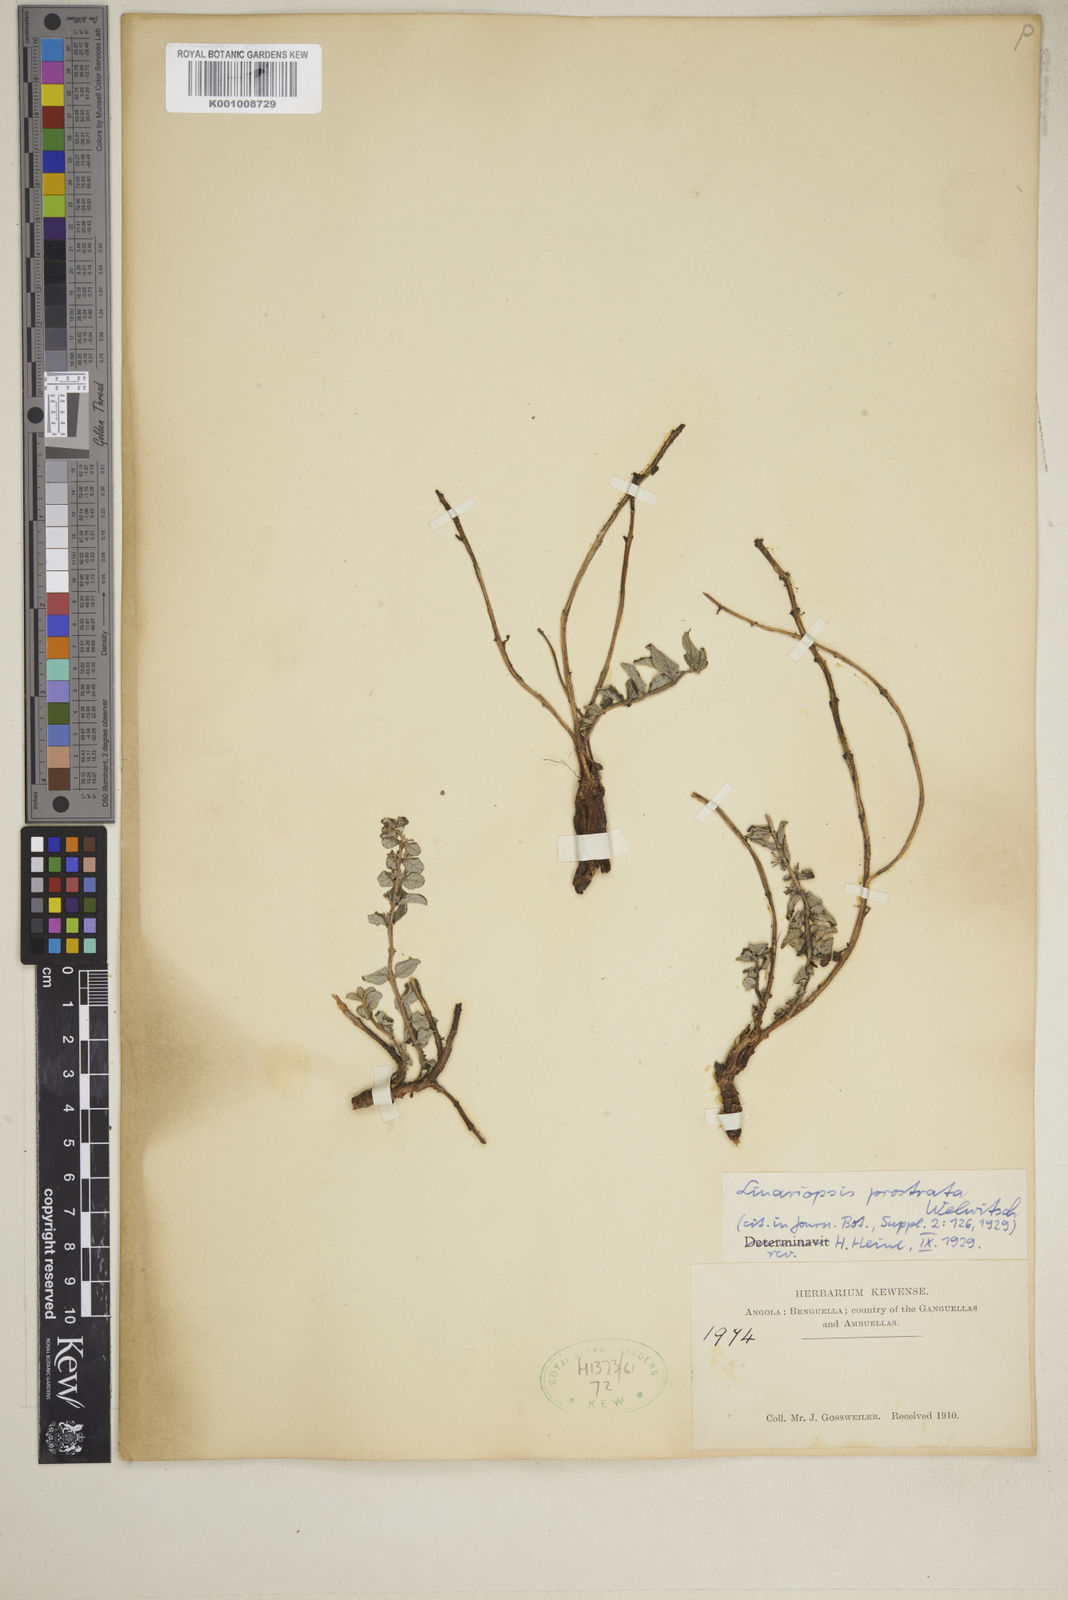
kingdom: Plantae
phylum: Tracheophyta
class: Magnoliopsida
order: Lamiales
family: Pedaliaceae
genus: Linariopsis
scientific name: Linariopsis prostrata
